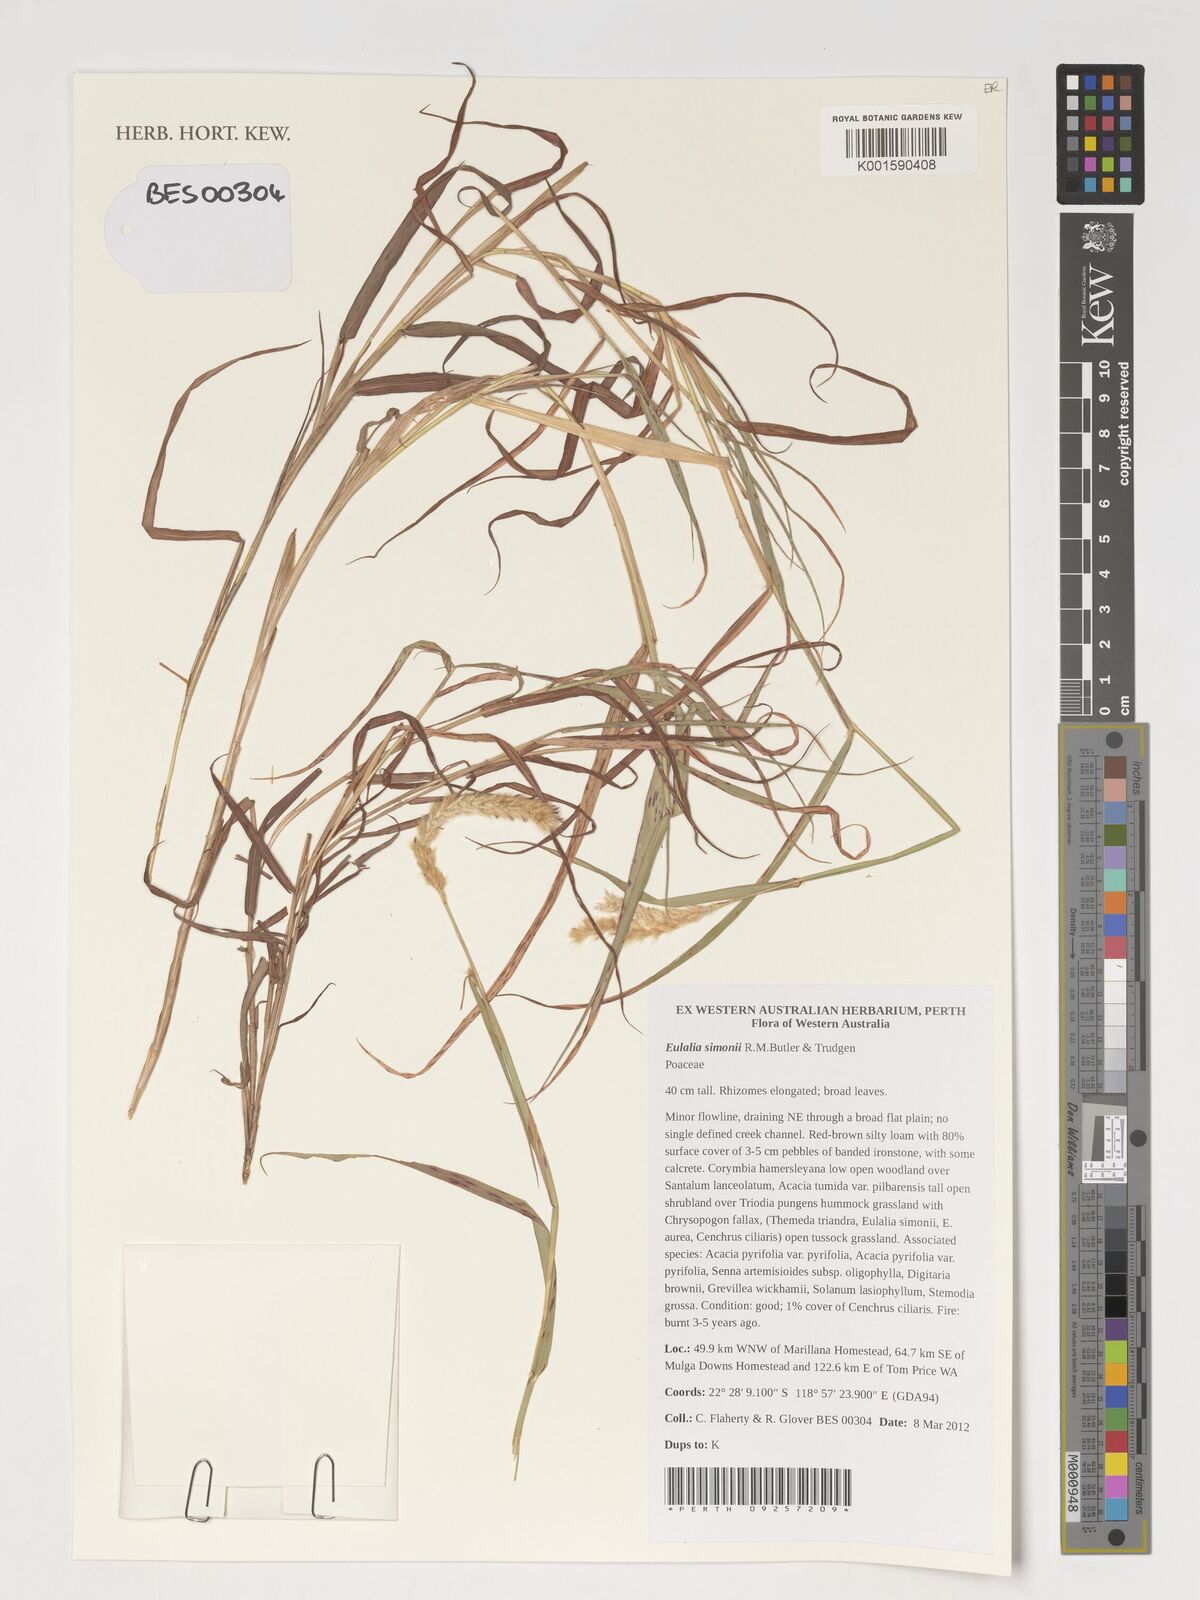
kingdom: Plantae
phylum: Tracheophyta
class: Liliopsida
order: Poales
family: Poaceae
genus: Eulalia
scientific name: Eulalia
